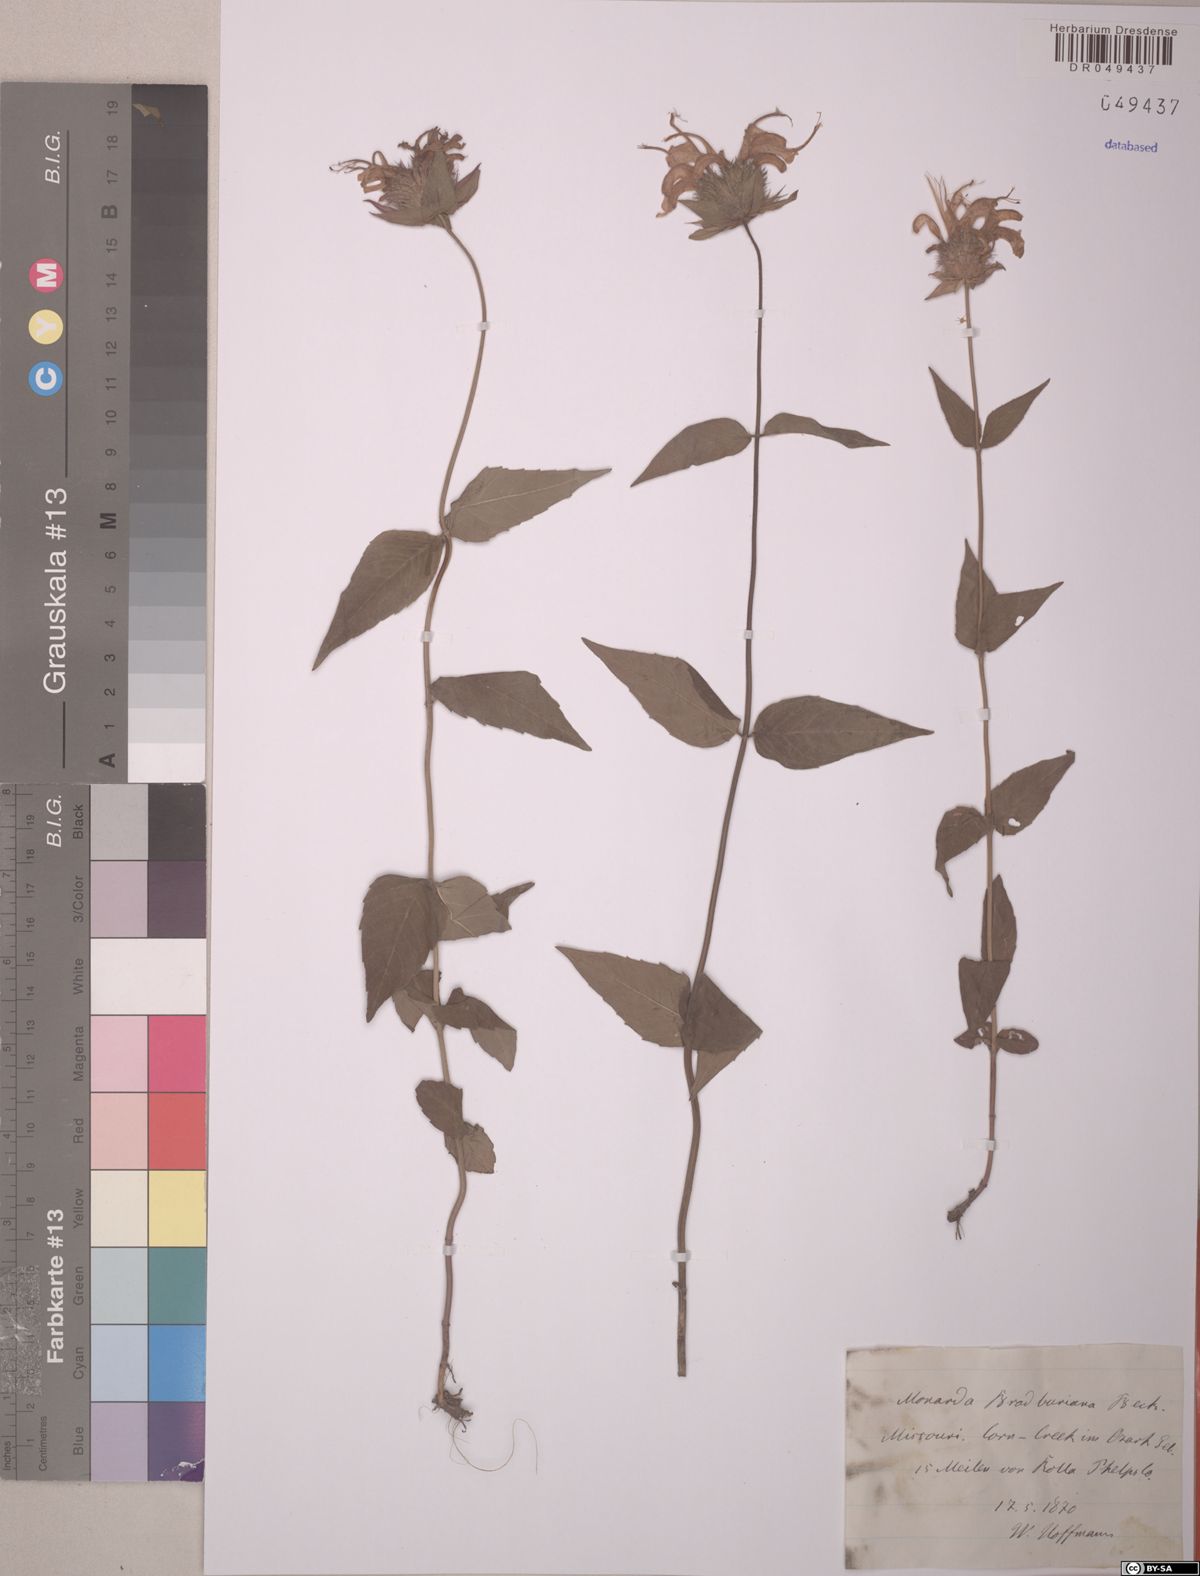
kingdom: Plantae
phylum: Tracheophyta
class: Magnoliopsida
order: Lamiales
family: Lamiaceae
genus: Monarda
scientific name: Monarda bradburiana
